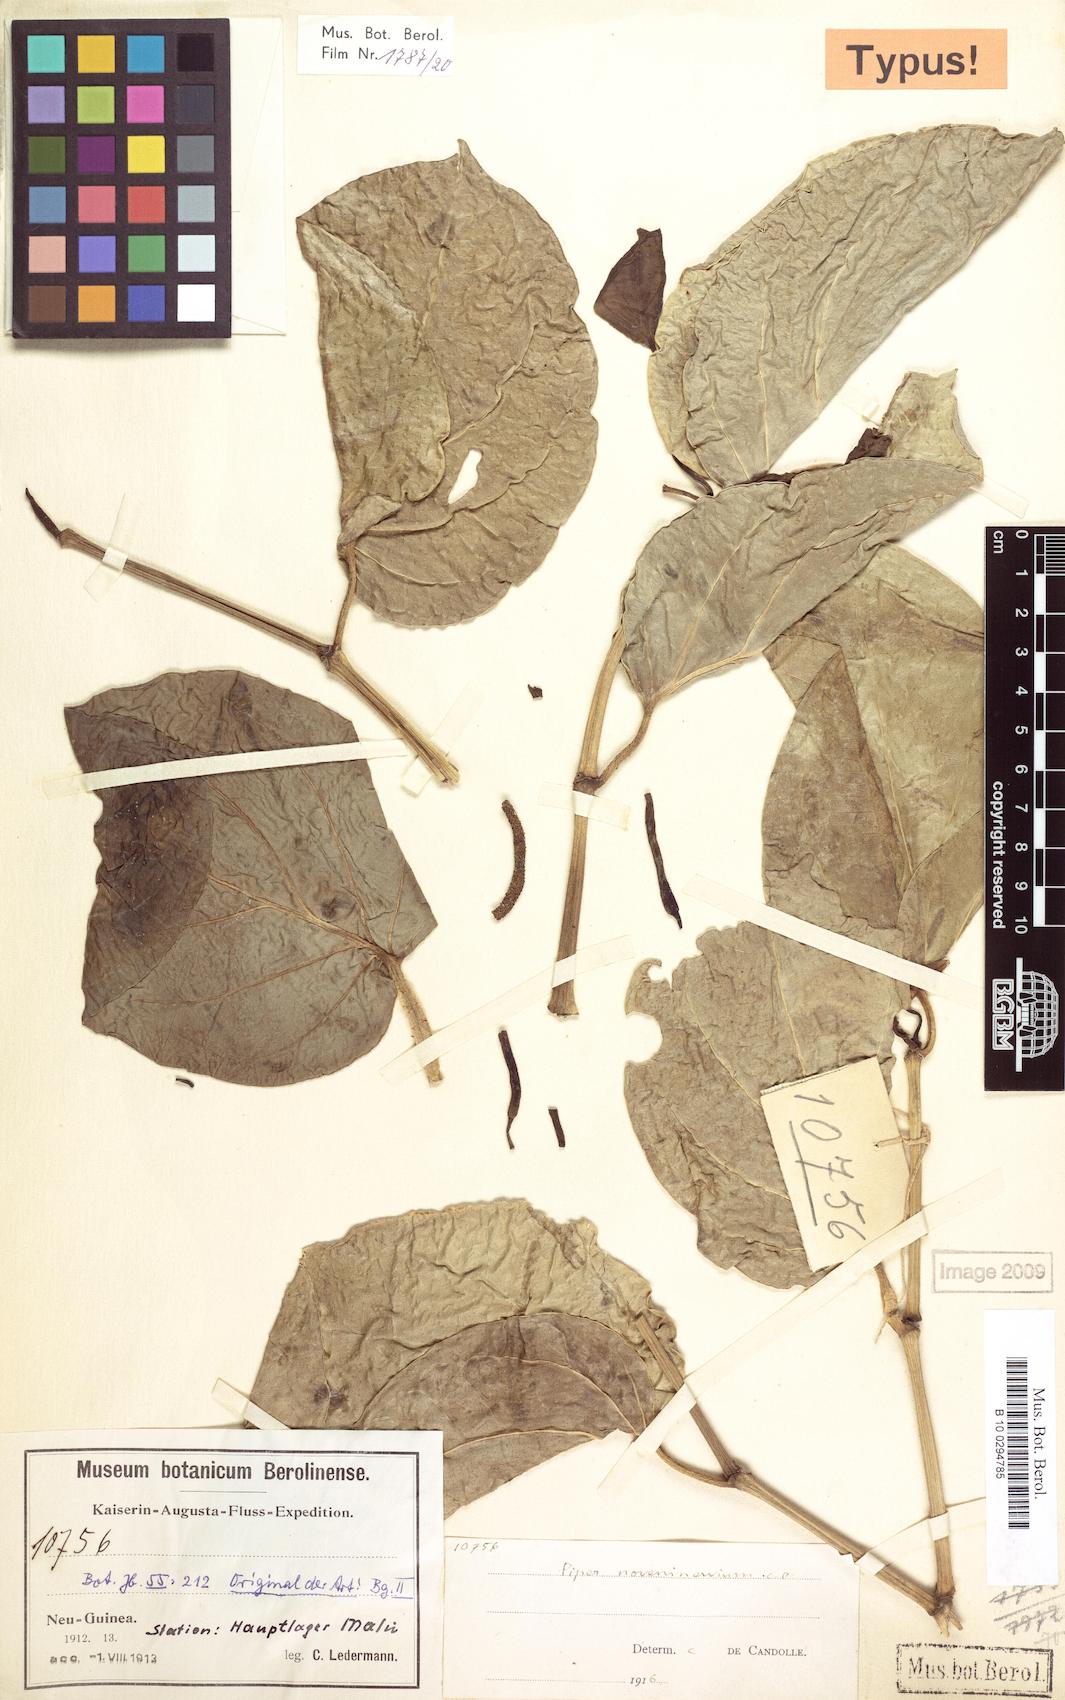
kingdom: Plantae
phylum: Tracheophyta
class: Magnoliopsida
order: Piperales
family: Piperaceae
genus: Piper
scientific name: Piper noveninervium
